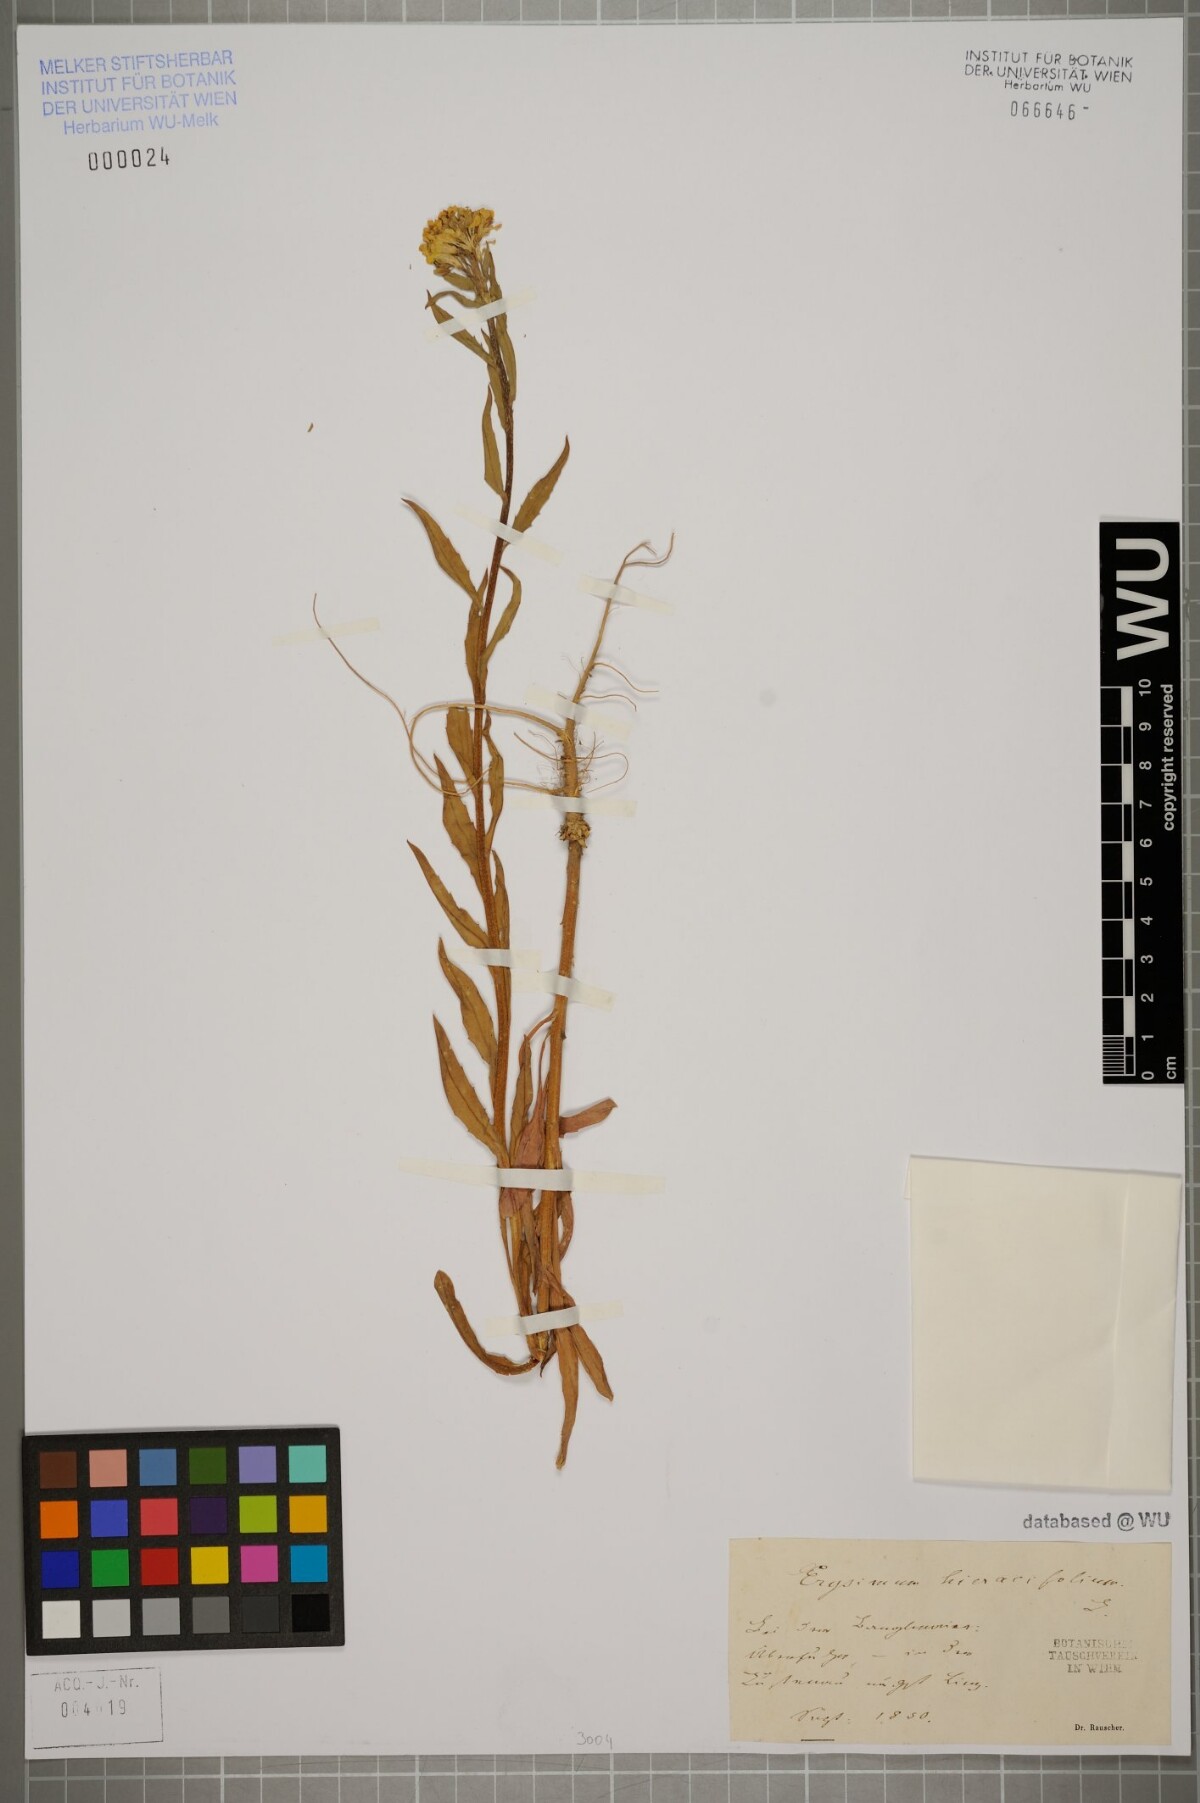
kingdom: Plantae
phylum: Tracheophyta
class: Magnoliopsida
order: Brassicales
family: Brassicaceae
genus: Erysimum
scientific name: Erysimum hieraciifolium
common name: European wallflower
